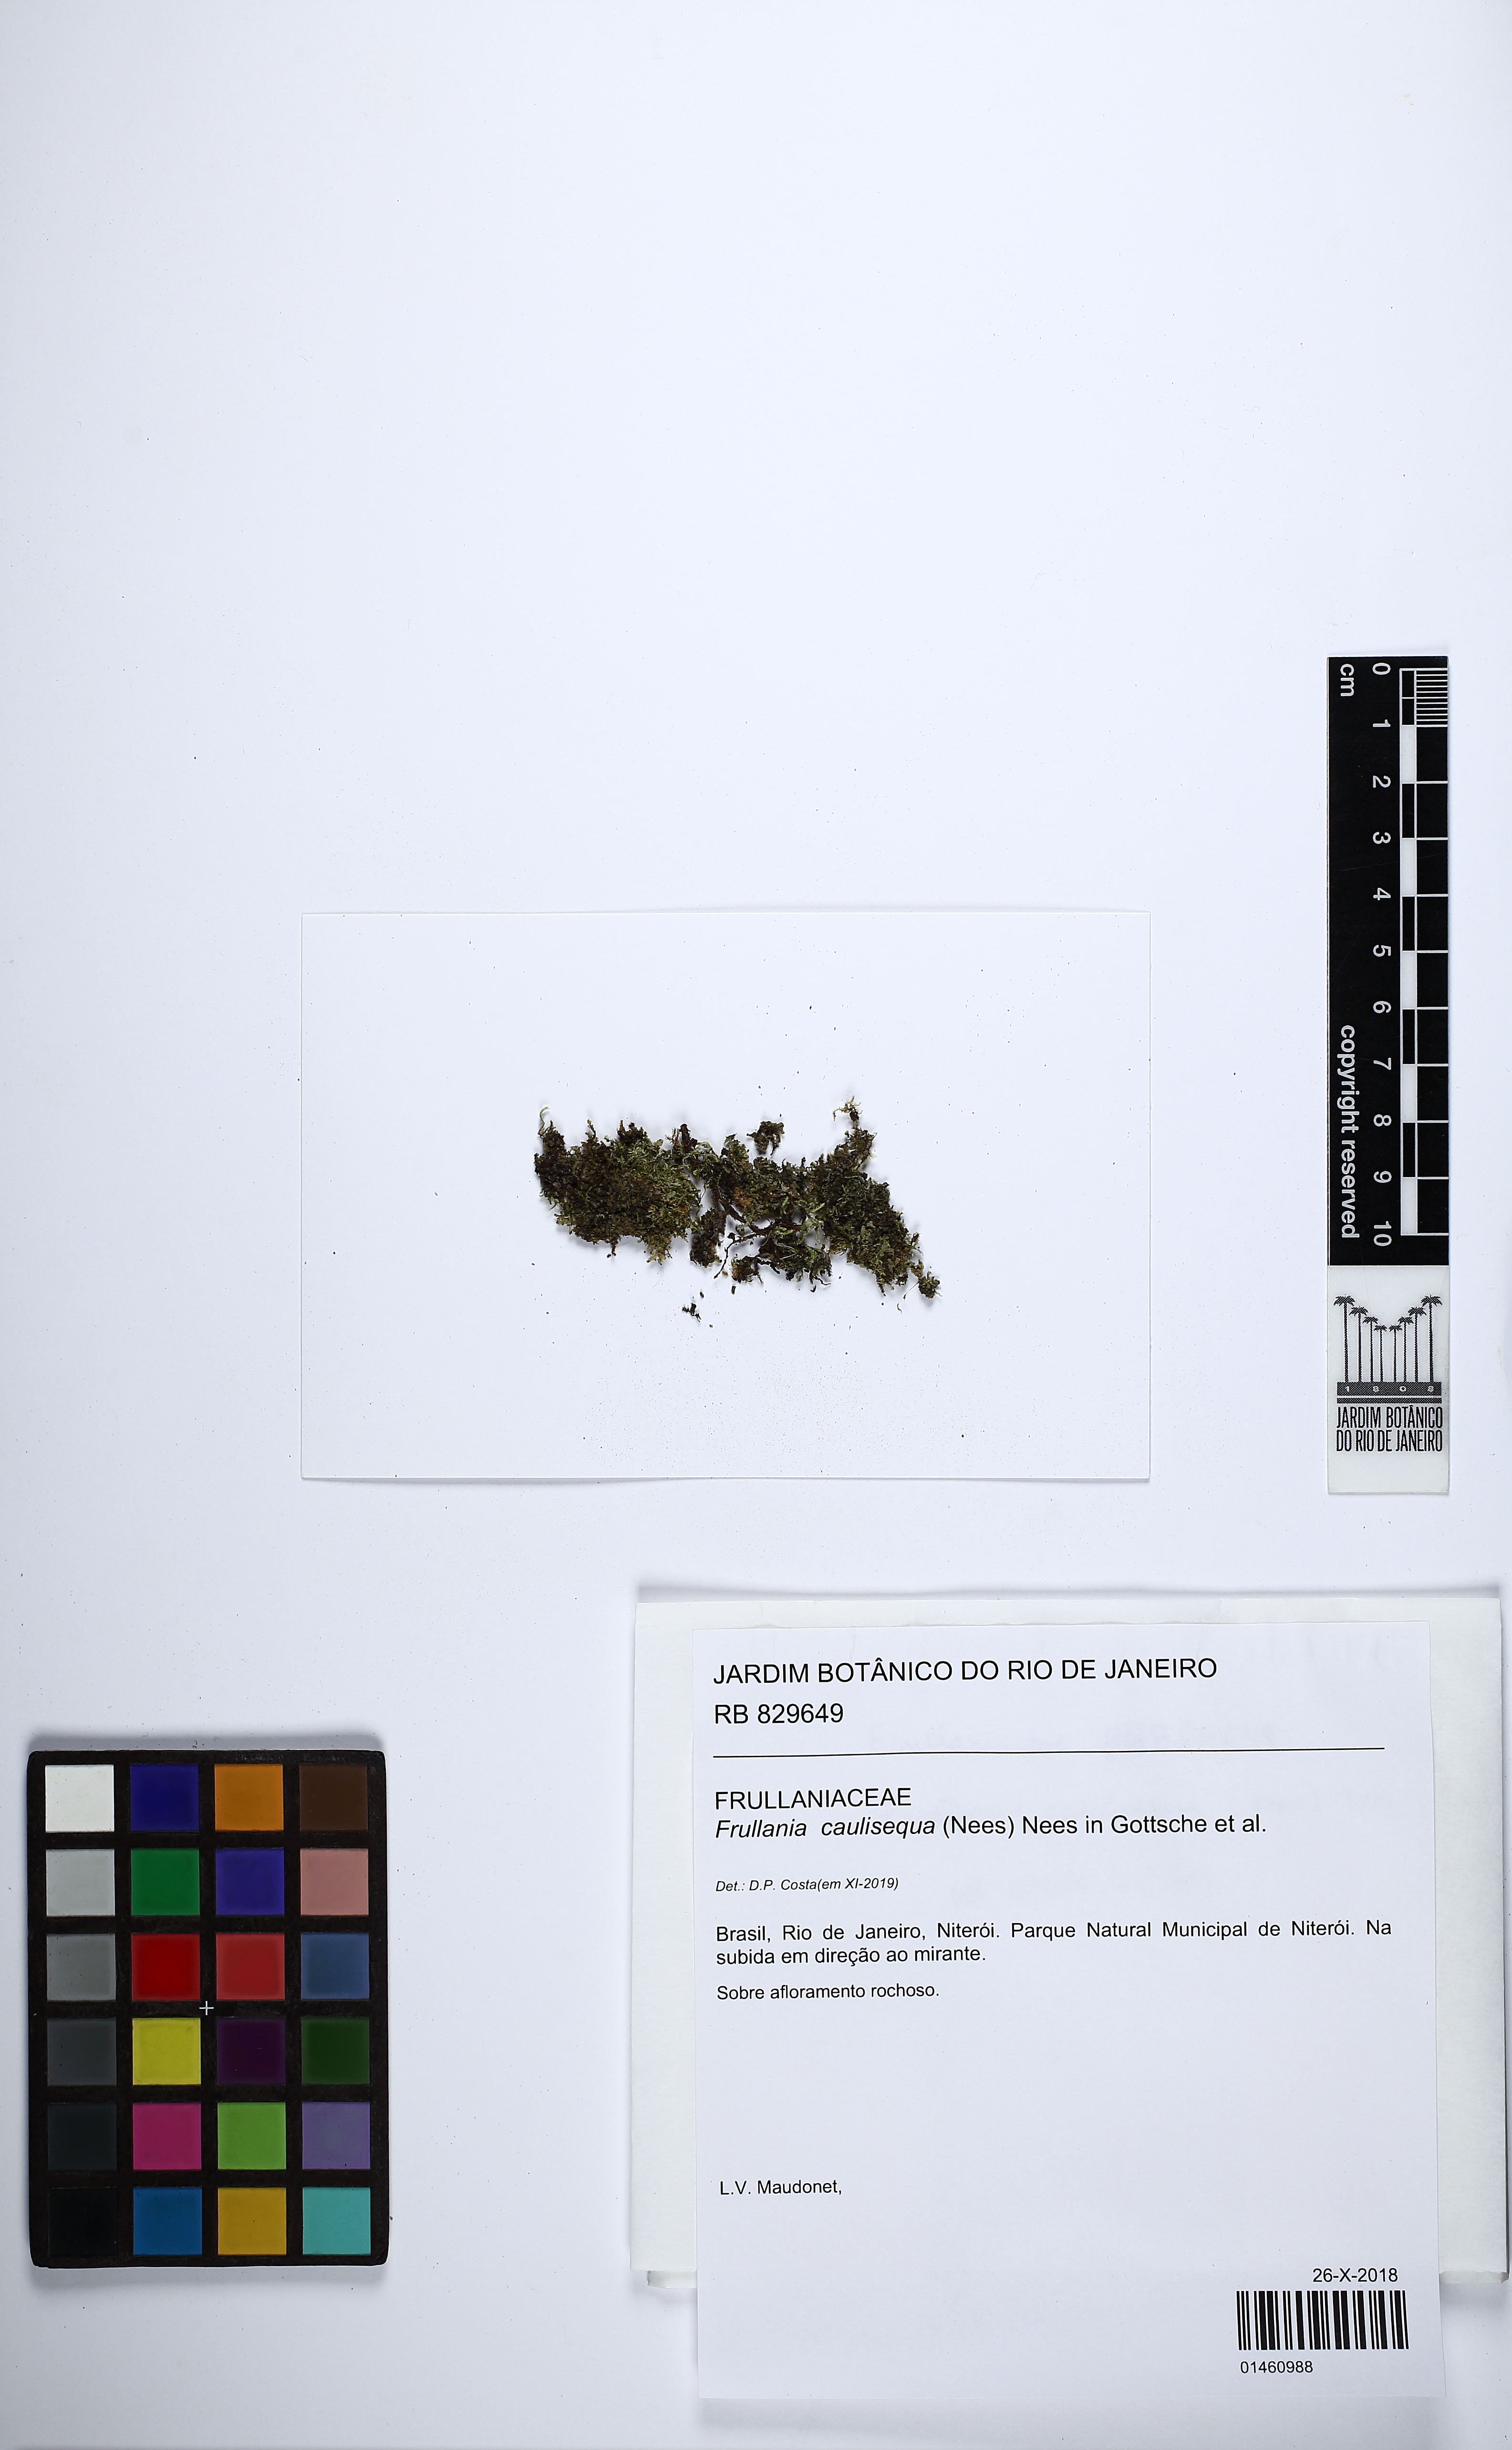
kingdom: Plantae
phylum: Marchantiophyta
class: Jungermanniopsida
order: Porellales
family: Frullaniaceae
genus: Frullania
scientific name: Frullania caulisequa
